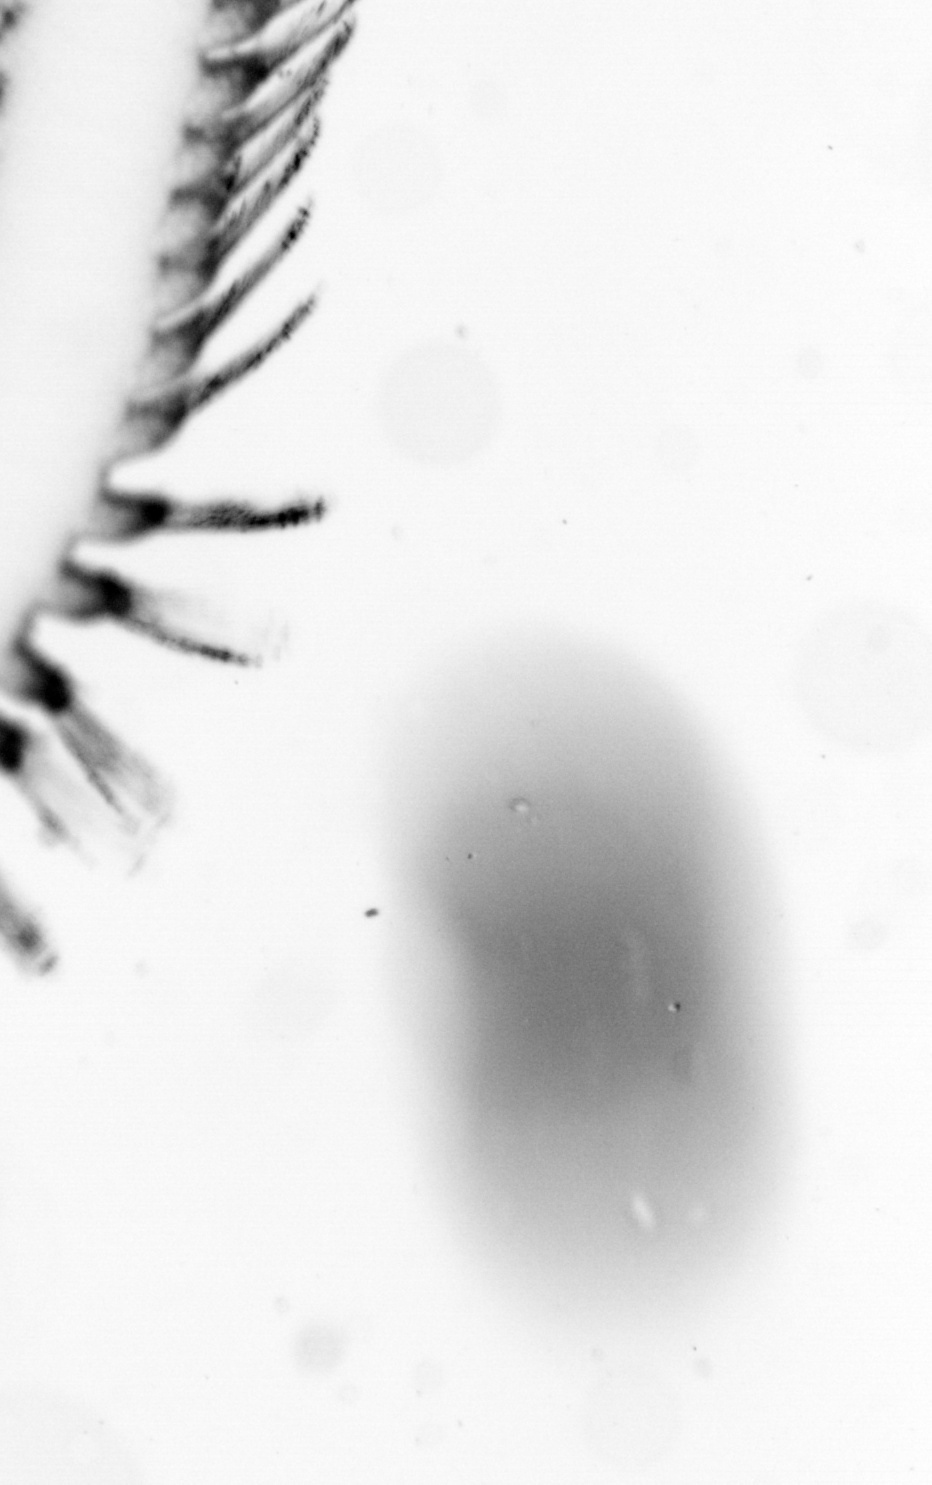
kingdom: Animalia
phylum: Annelida
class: Polychaeta
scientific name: Polychaeta
